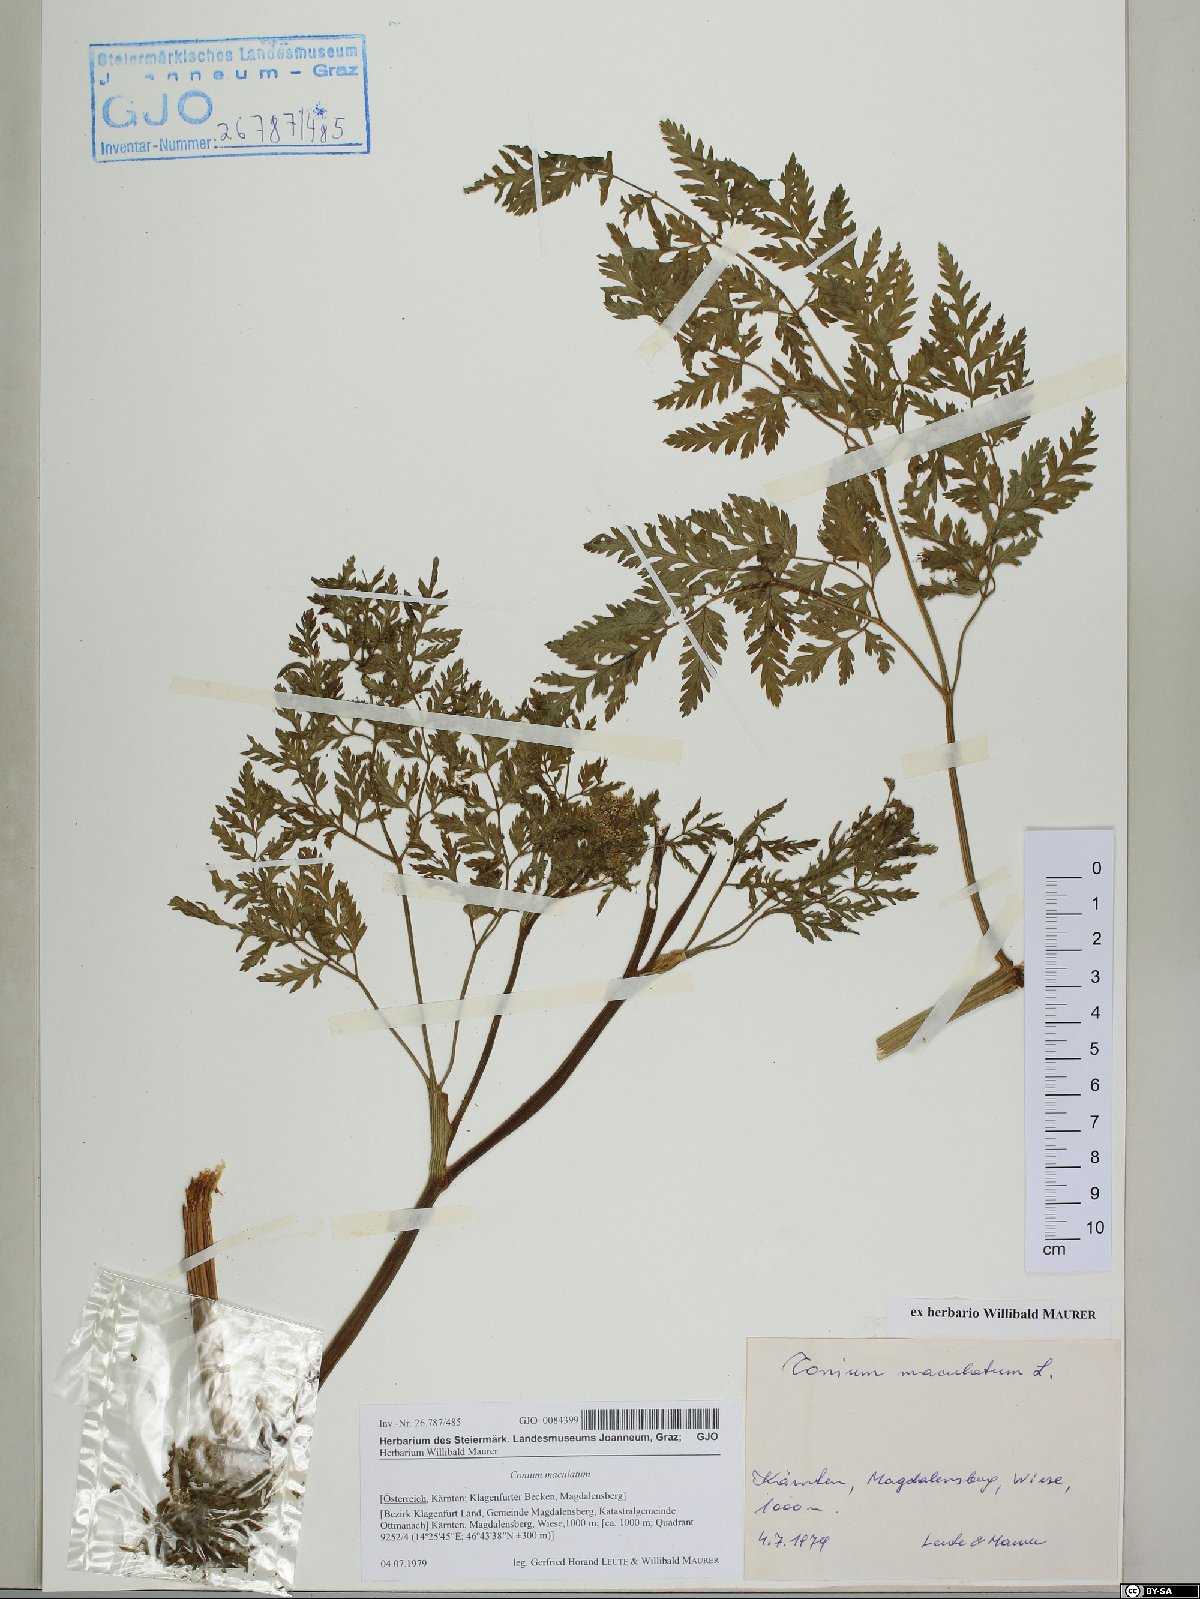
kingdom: Plantae
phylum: Tracheophyta
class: Magnoliopsida
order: Apiales
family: Apiaceae
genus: Conium
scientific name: Conium maculatum
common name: Hemlock
